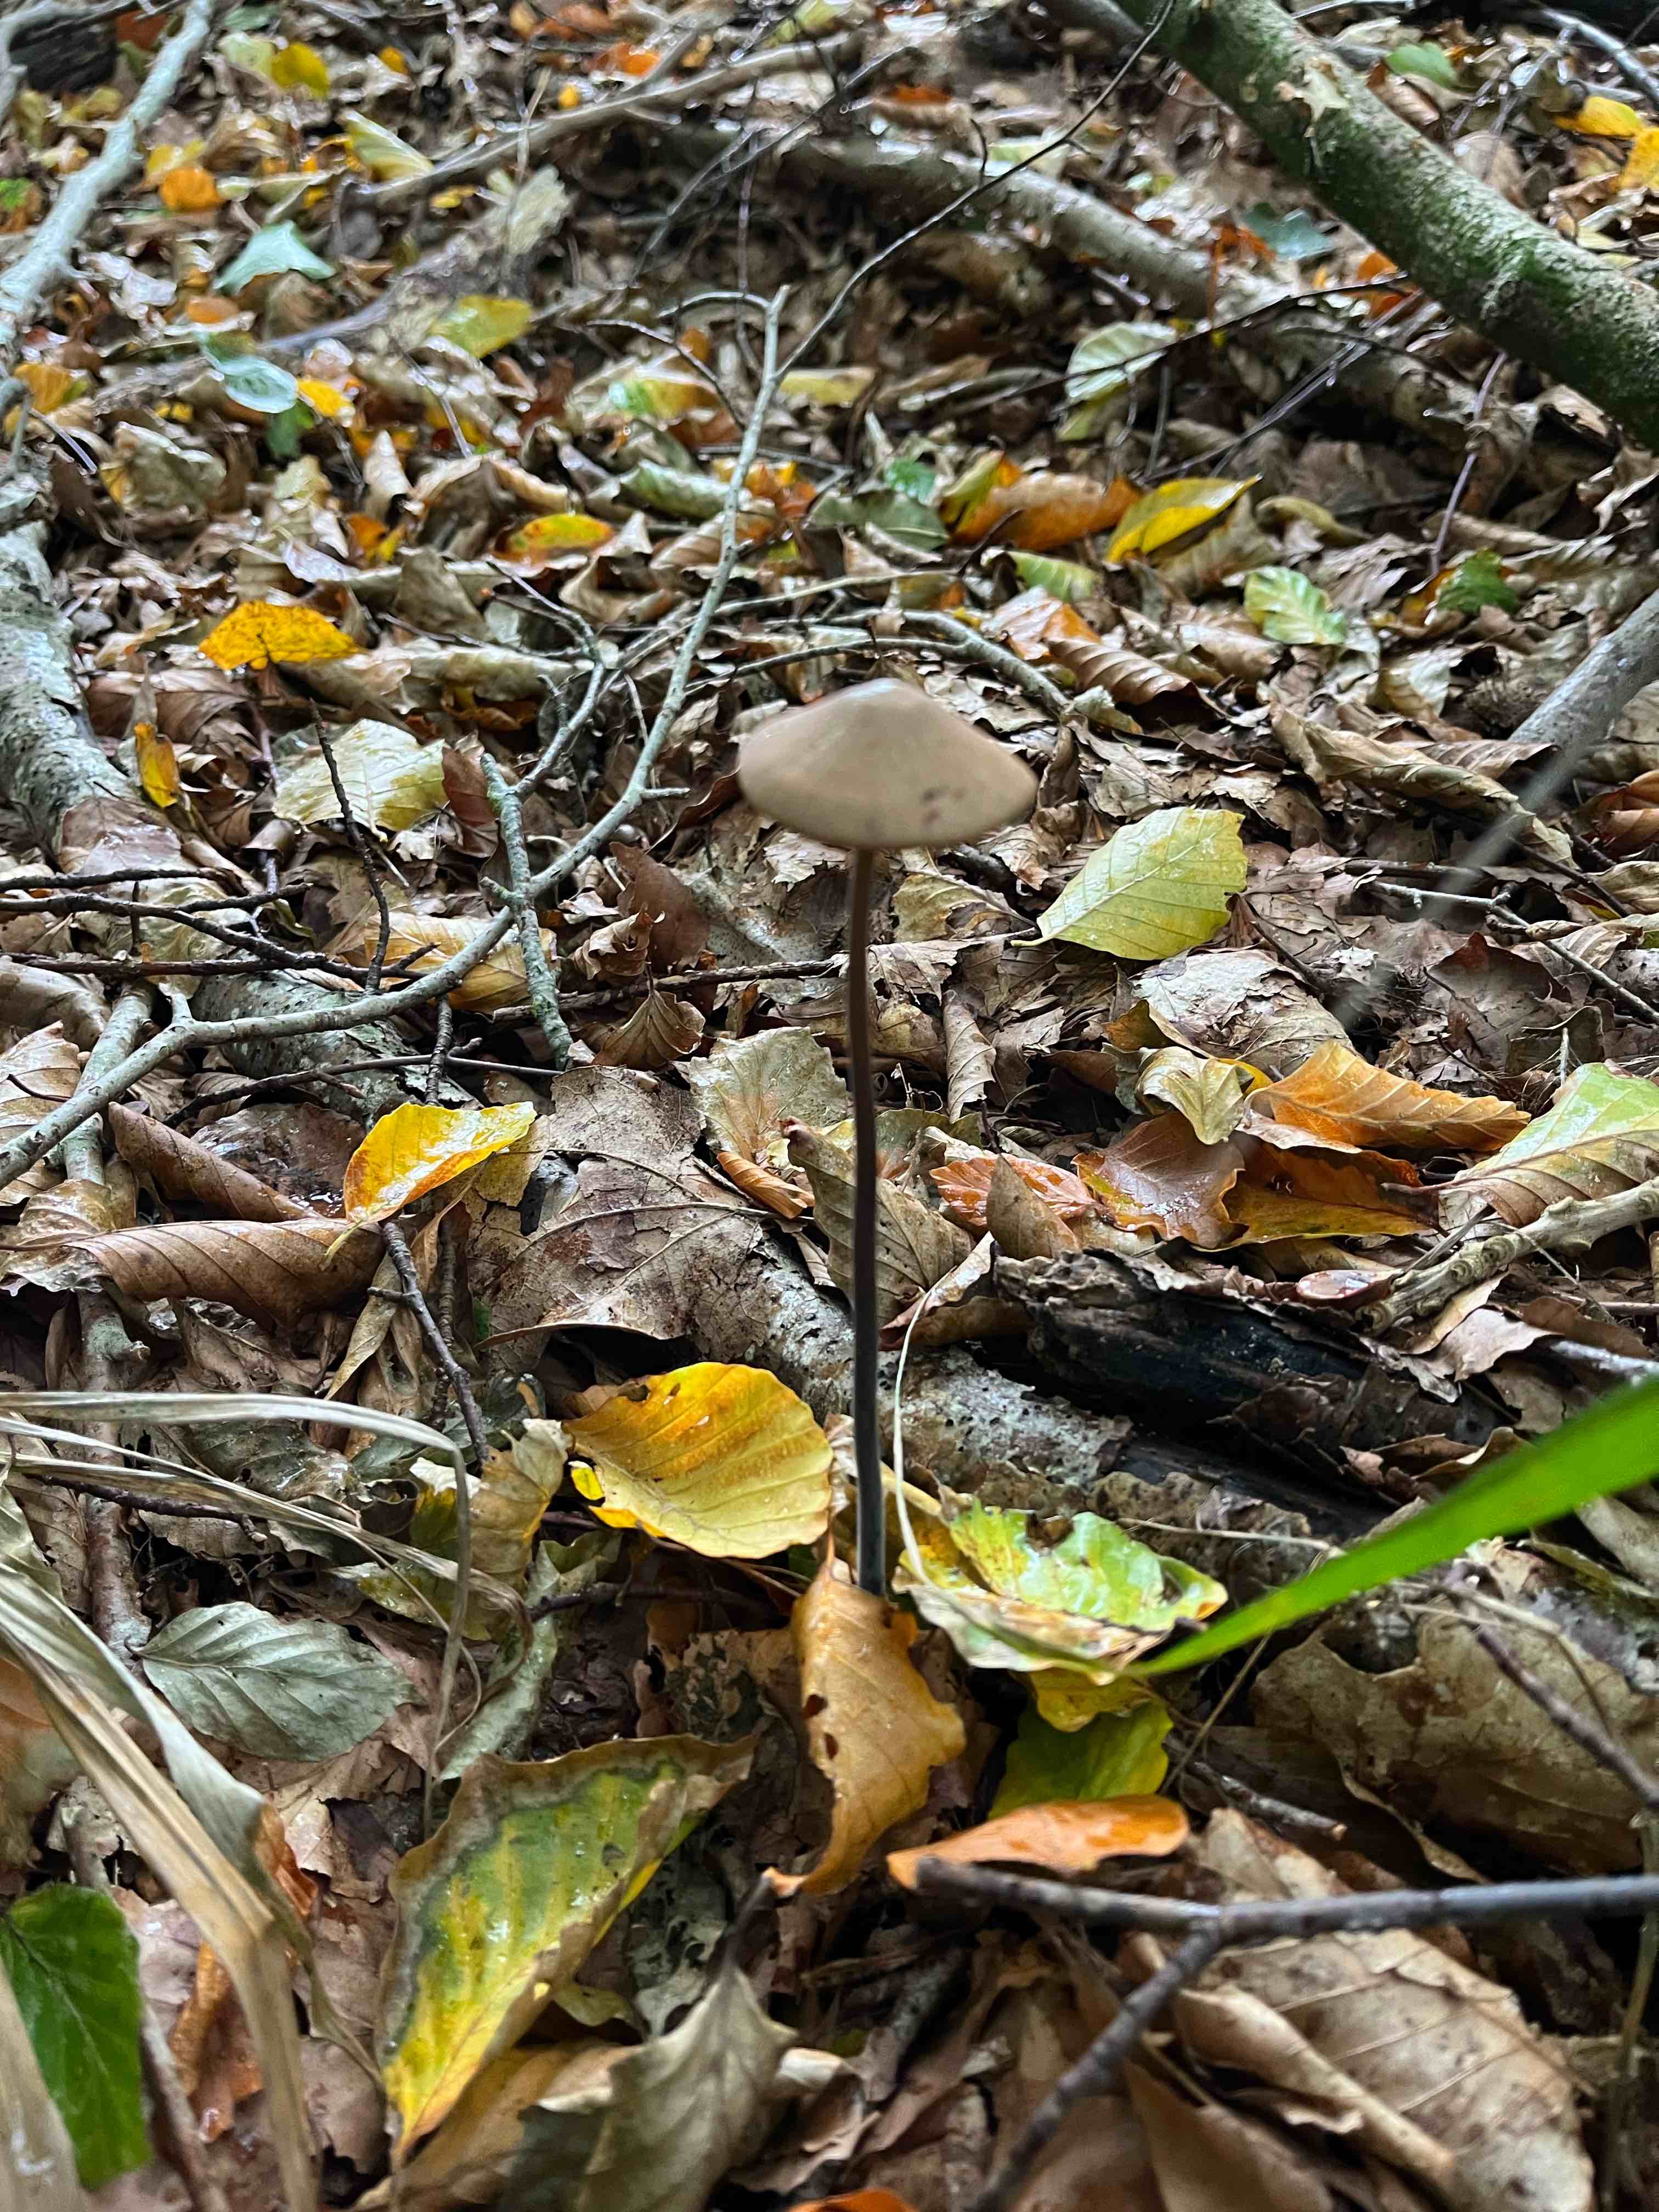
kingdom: Fungi
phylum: Basidiomycota
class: Agaricomycetes
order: Agaricales
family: Omphalotaceae
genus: Mycetinis
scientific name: Mycetinis alliaceus
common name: stor løghat
